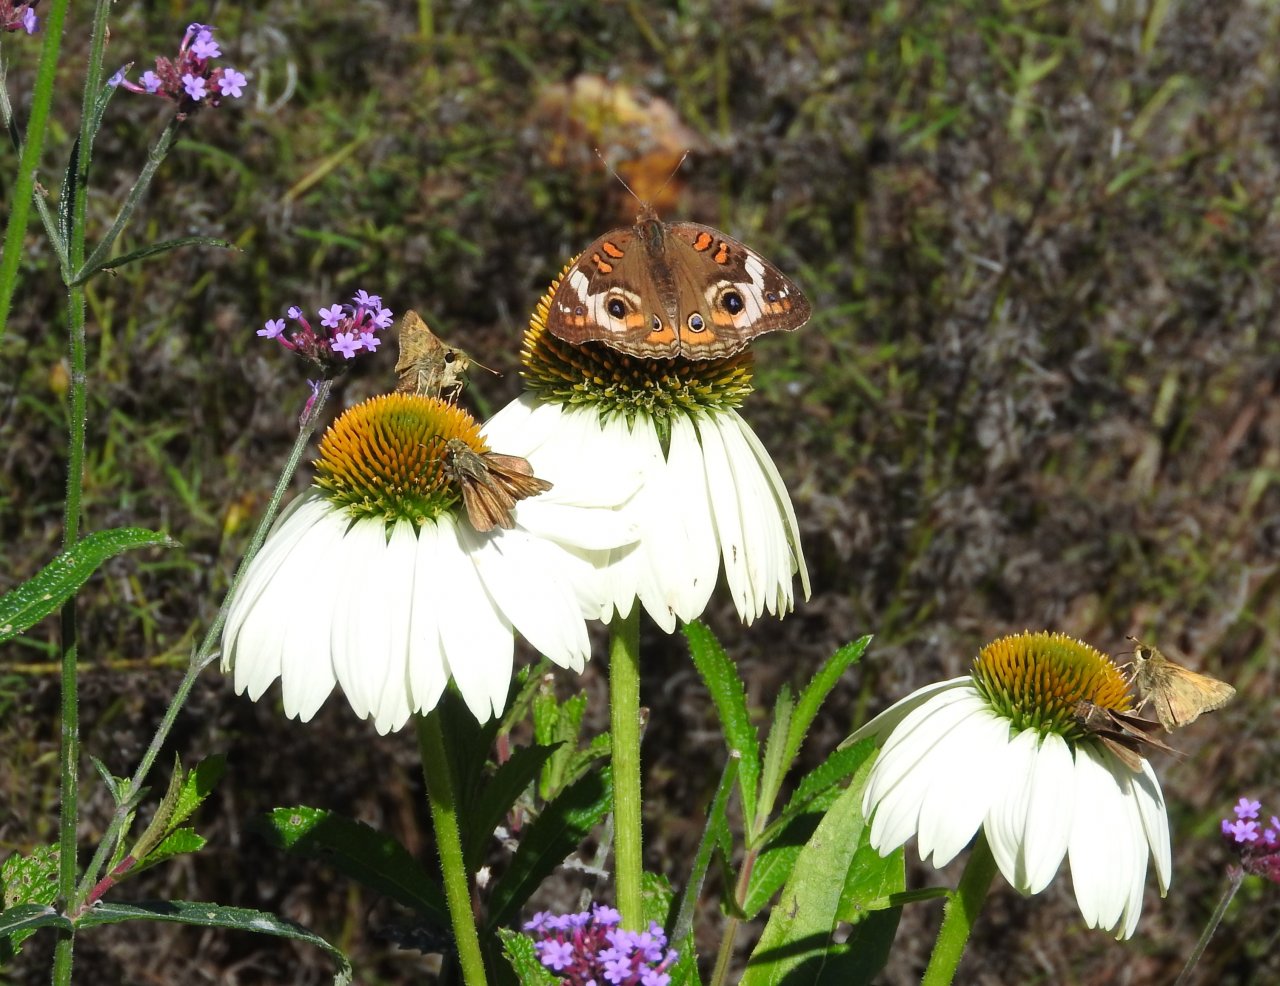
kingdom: Animalia
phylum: Arthropoda
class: Insecta
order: Lepidoptera
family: Nymphalidae
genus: Junonia
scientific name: Junonia coenia
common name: Common Buckeye
